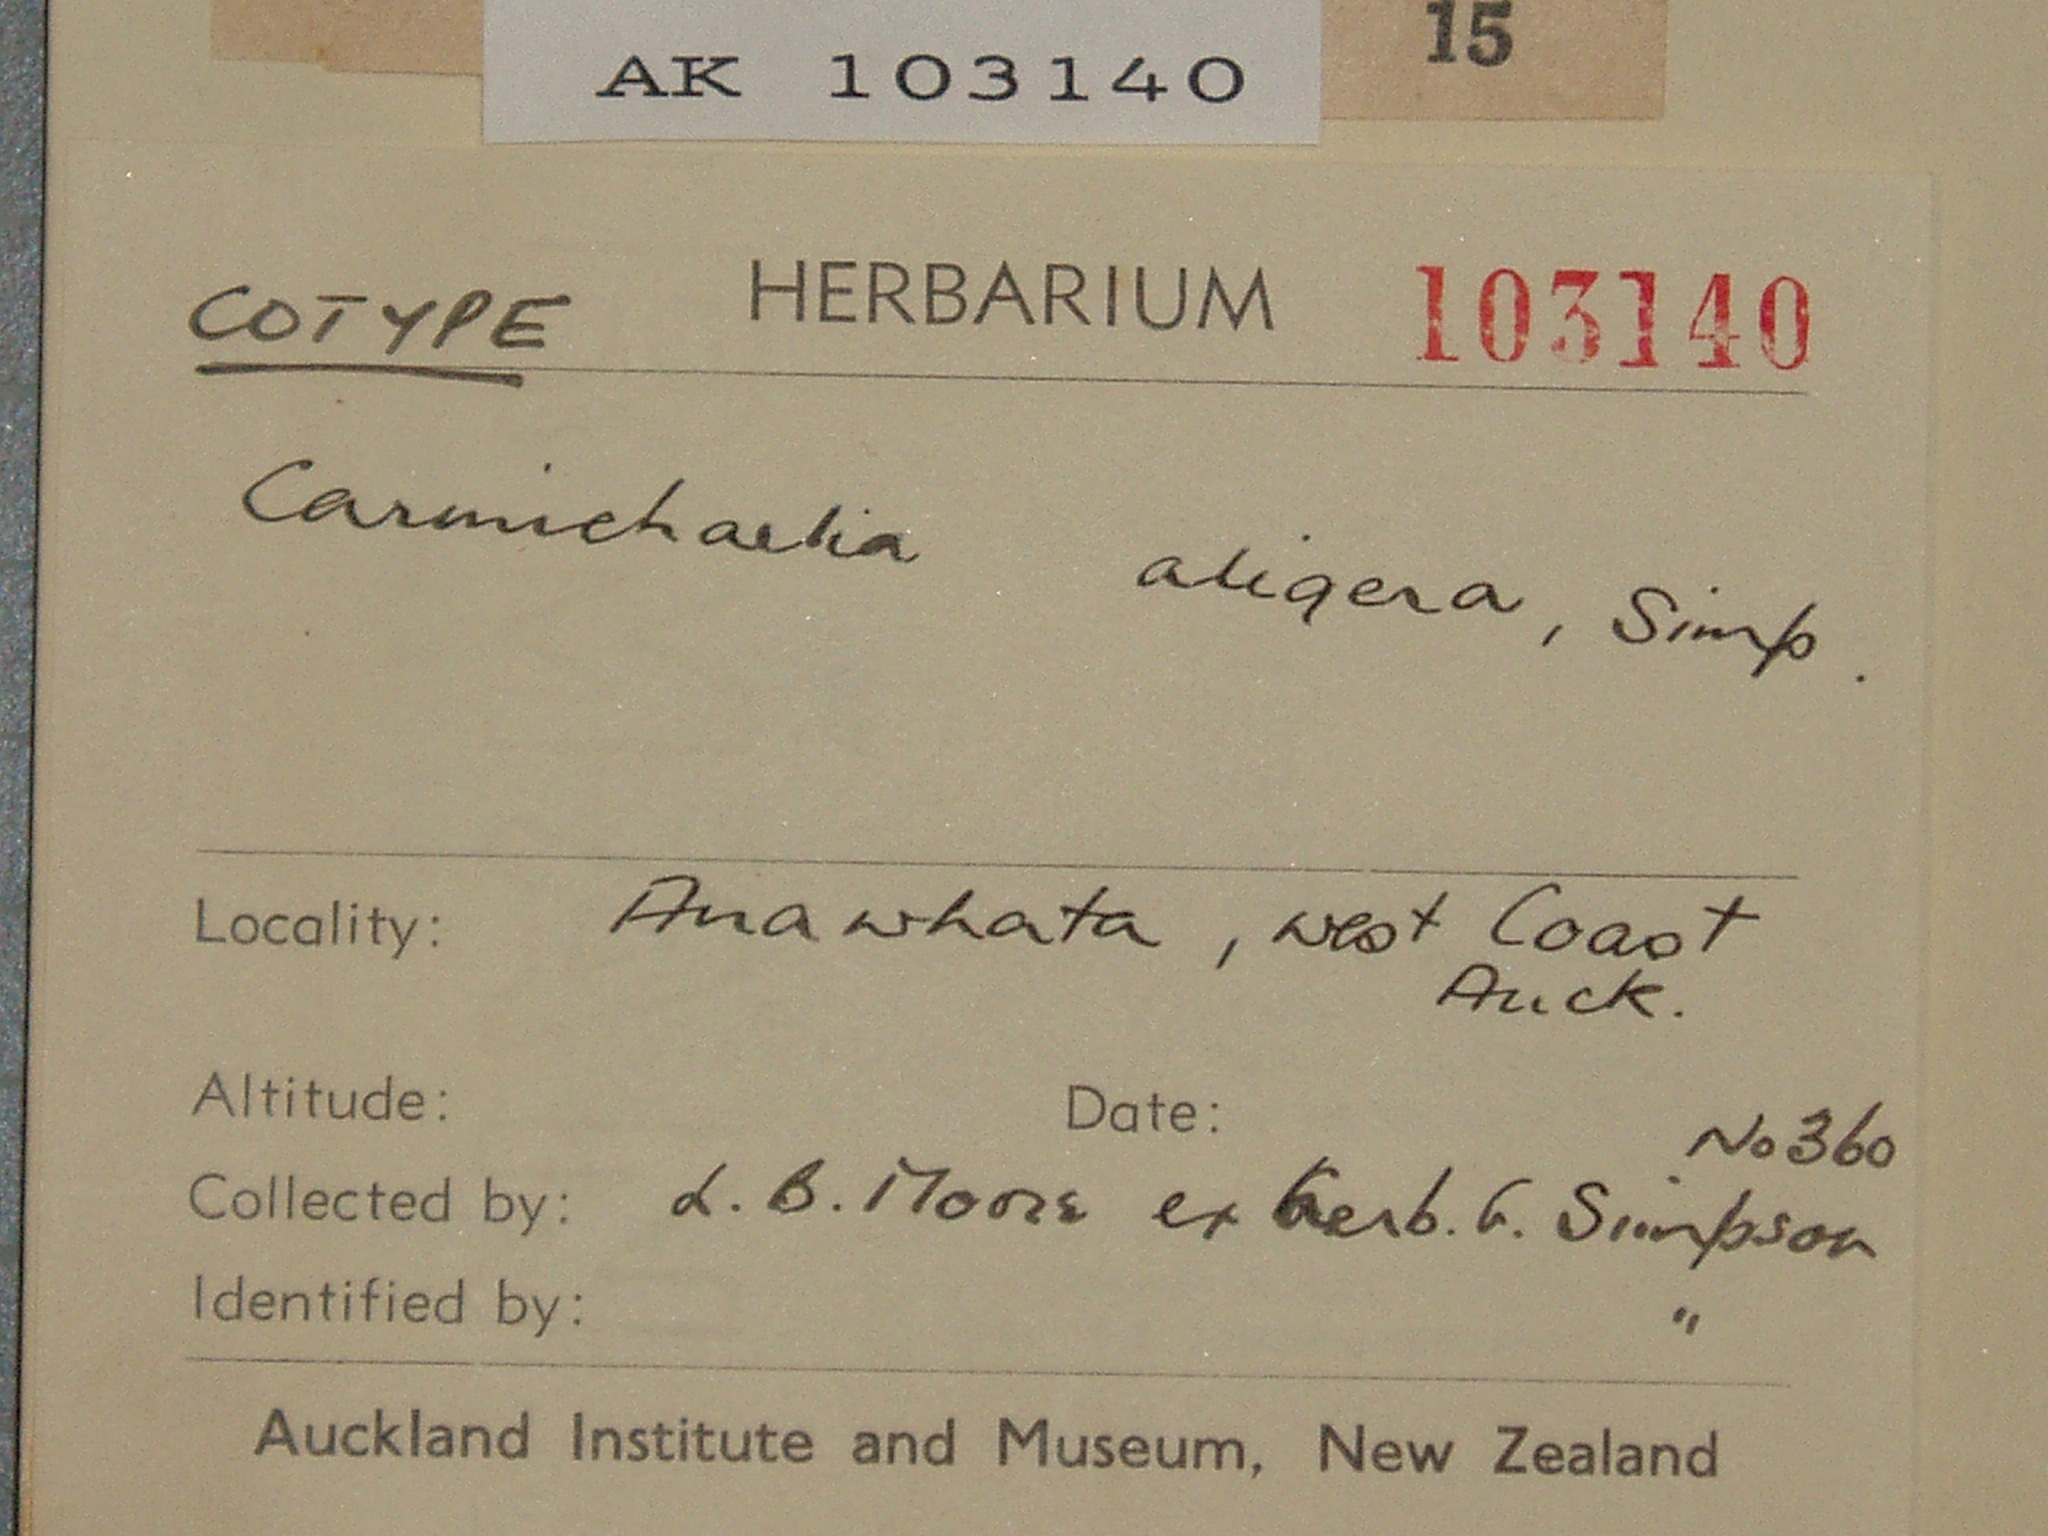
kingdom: Plantae
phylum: Tracheophyta
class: Magnoliopsida
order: Fabales
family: Fabaceae
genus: Carmichaelia
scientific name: Carmichaelia australis
